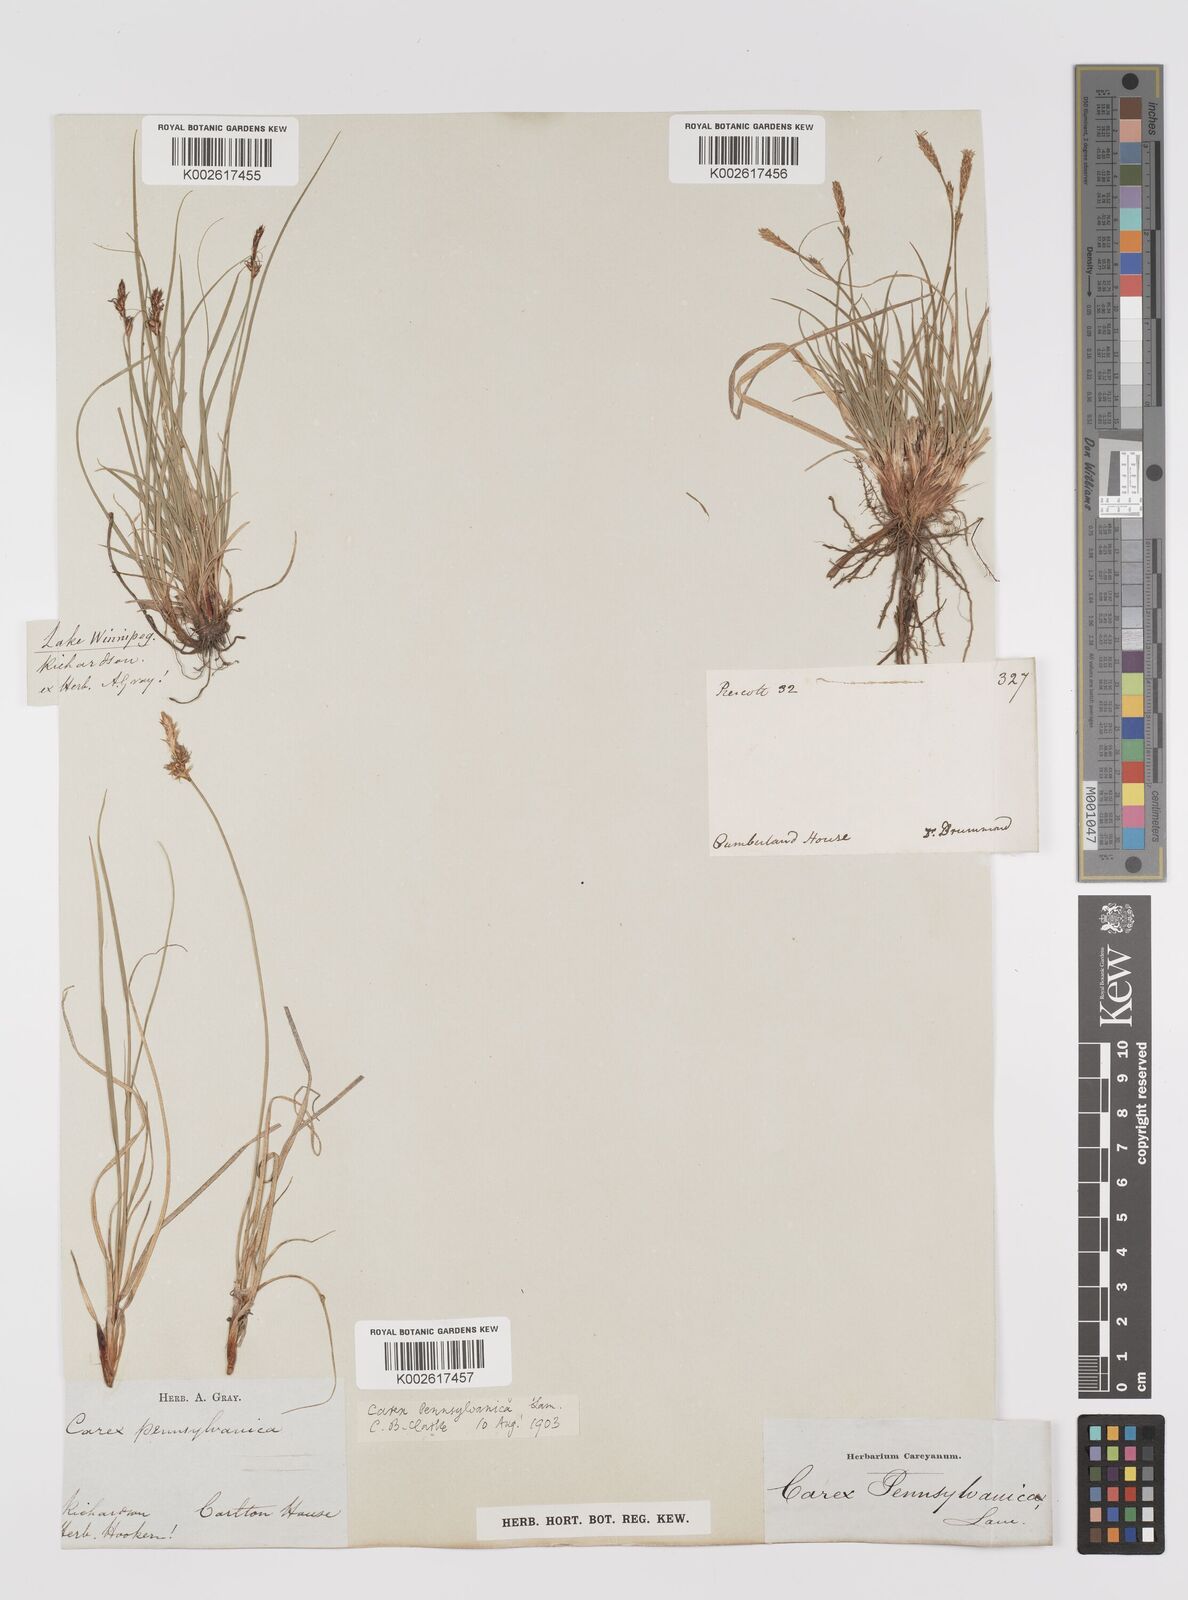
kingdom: Plantae
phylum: Tracheophyta
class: Liliopsida
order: Poales
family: Cyperaceae
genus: Carex
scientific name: Carex pensylvanica
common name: Common oak sedge
